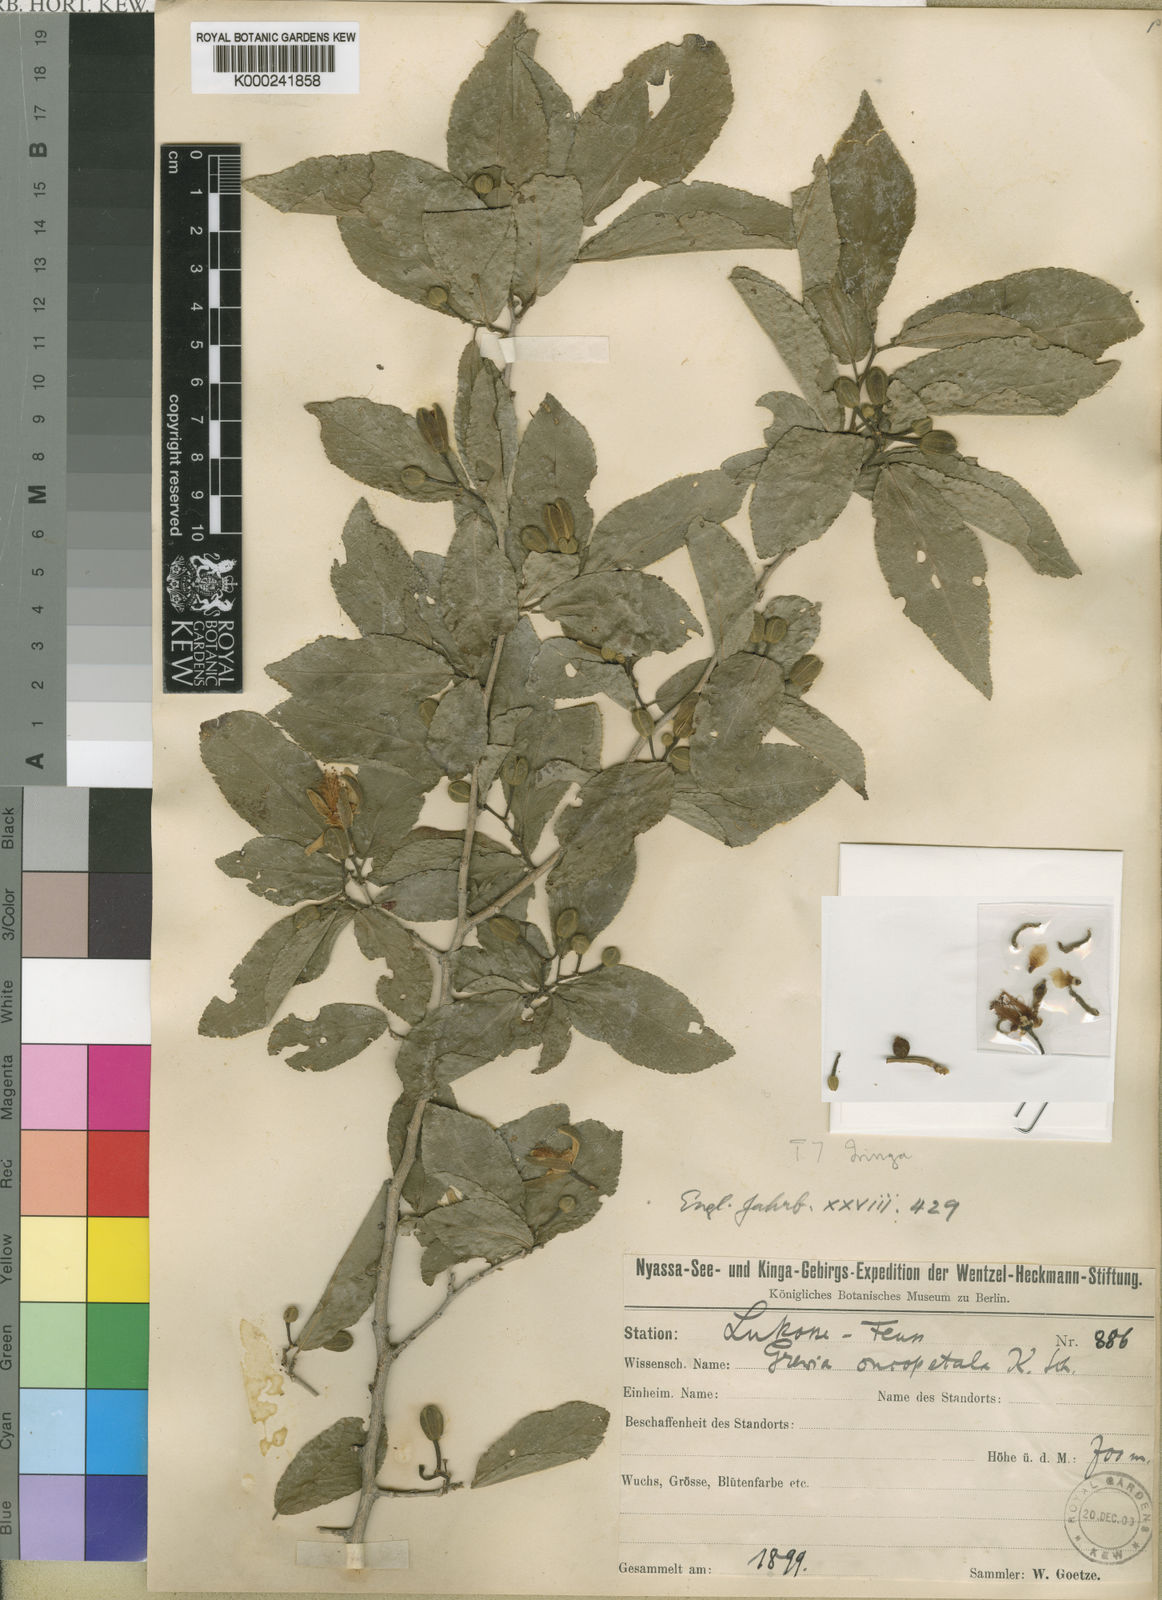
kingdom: Plantae
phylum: Tracheophyta
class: Magnoliopsida
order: Malvales
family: Malvaceae
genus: Grewia
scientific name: Grewia oncopetala
